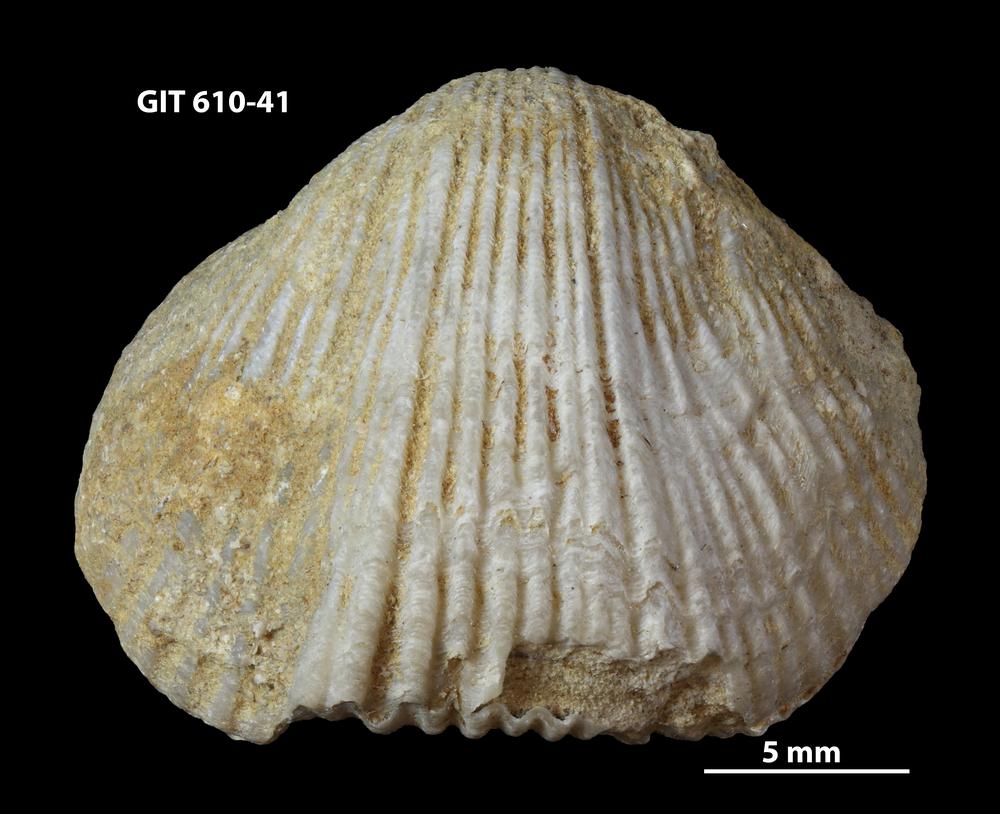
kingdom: Animalia
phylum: Brachiopoda
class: Rhynchonellata
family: Triplesiidae
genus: Cliftonia
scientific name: Cliftonia
